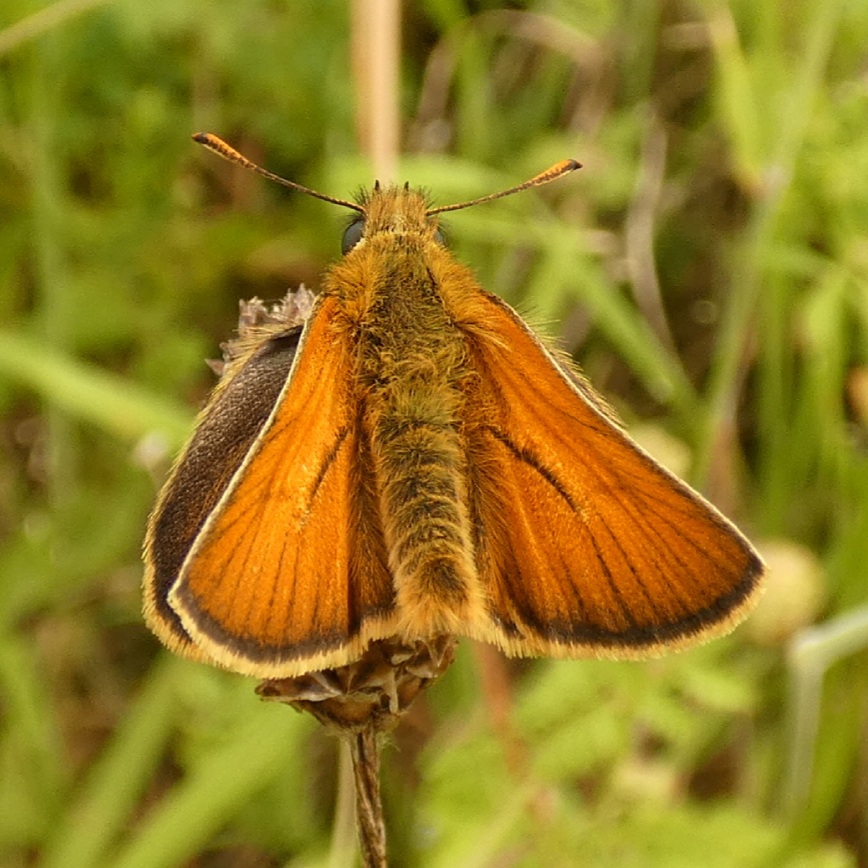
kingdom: Animalia
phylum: Arthropoda
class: Insecta
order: Lepidoptera
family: Hesperiidae
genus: Thymelicus
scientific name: Thymelicus sylvestris
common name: Skråstregbredpande
